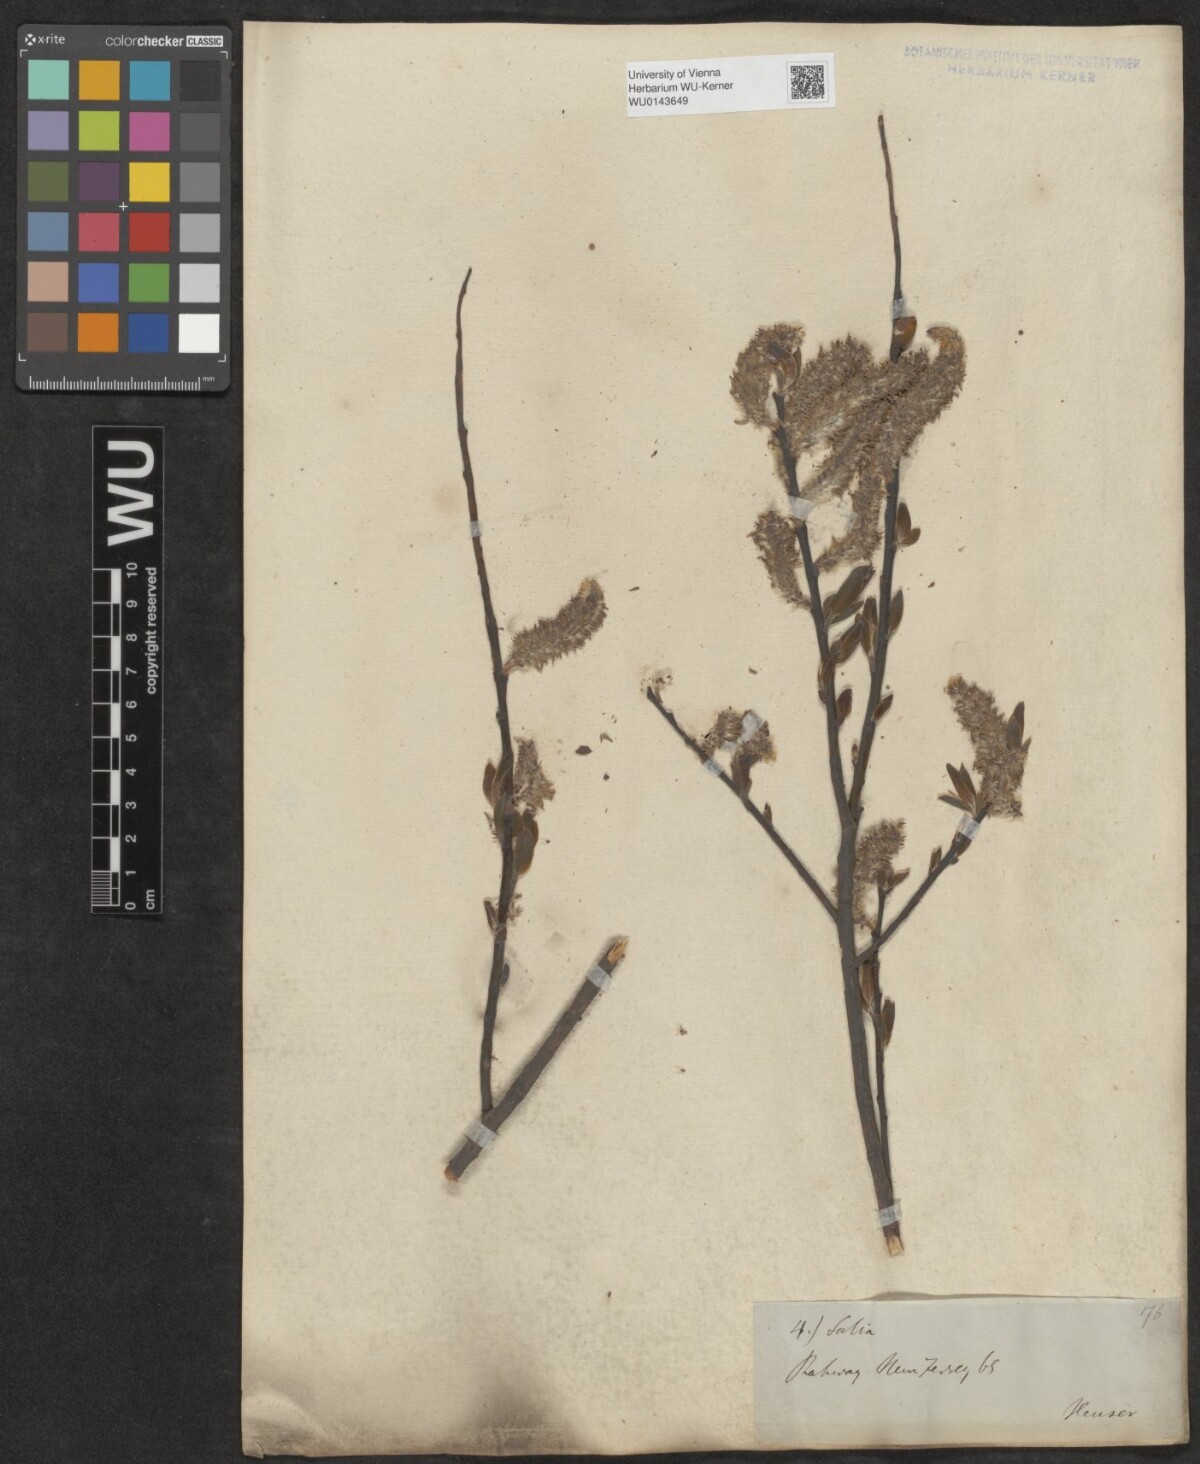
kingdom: Plantae
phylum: Tracheophyta
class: Magnoliopsida
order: Malpighiales
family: Salicaceae
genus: Salix
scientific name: Salix
